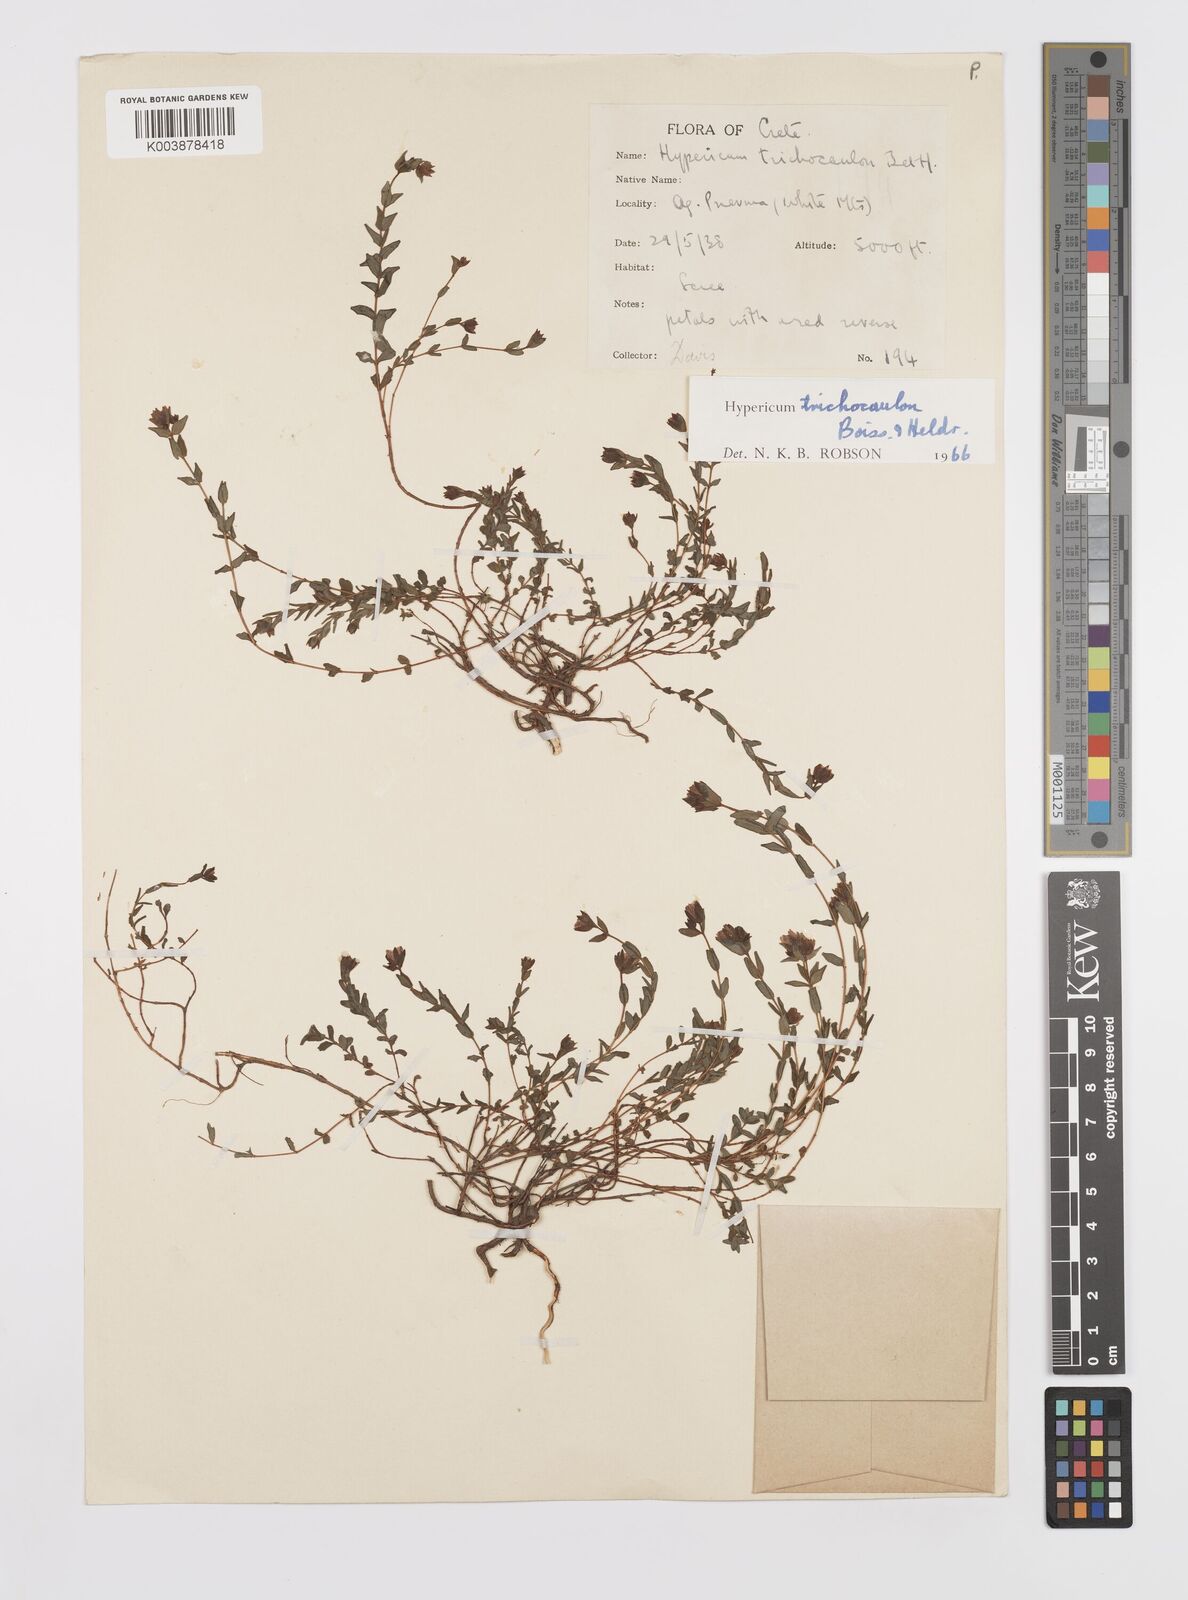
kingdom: Plantae
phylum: Tracheophyta
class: Magnoliopsida
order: Malpighiales
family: Hypericaceae
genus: Hypericum
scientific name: Hypericum trichocaulon
